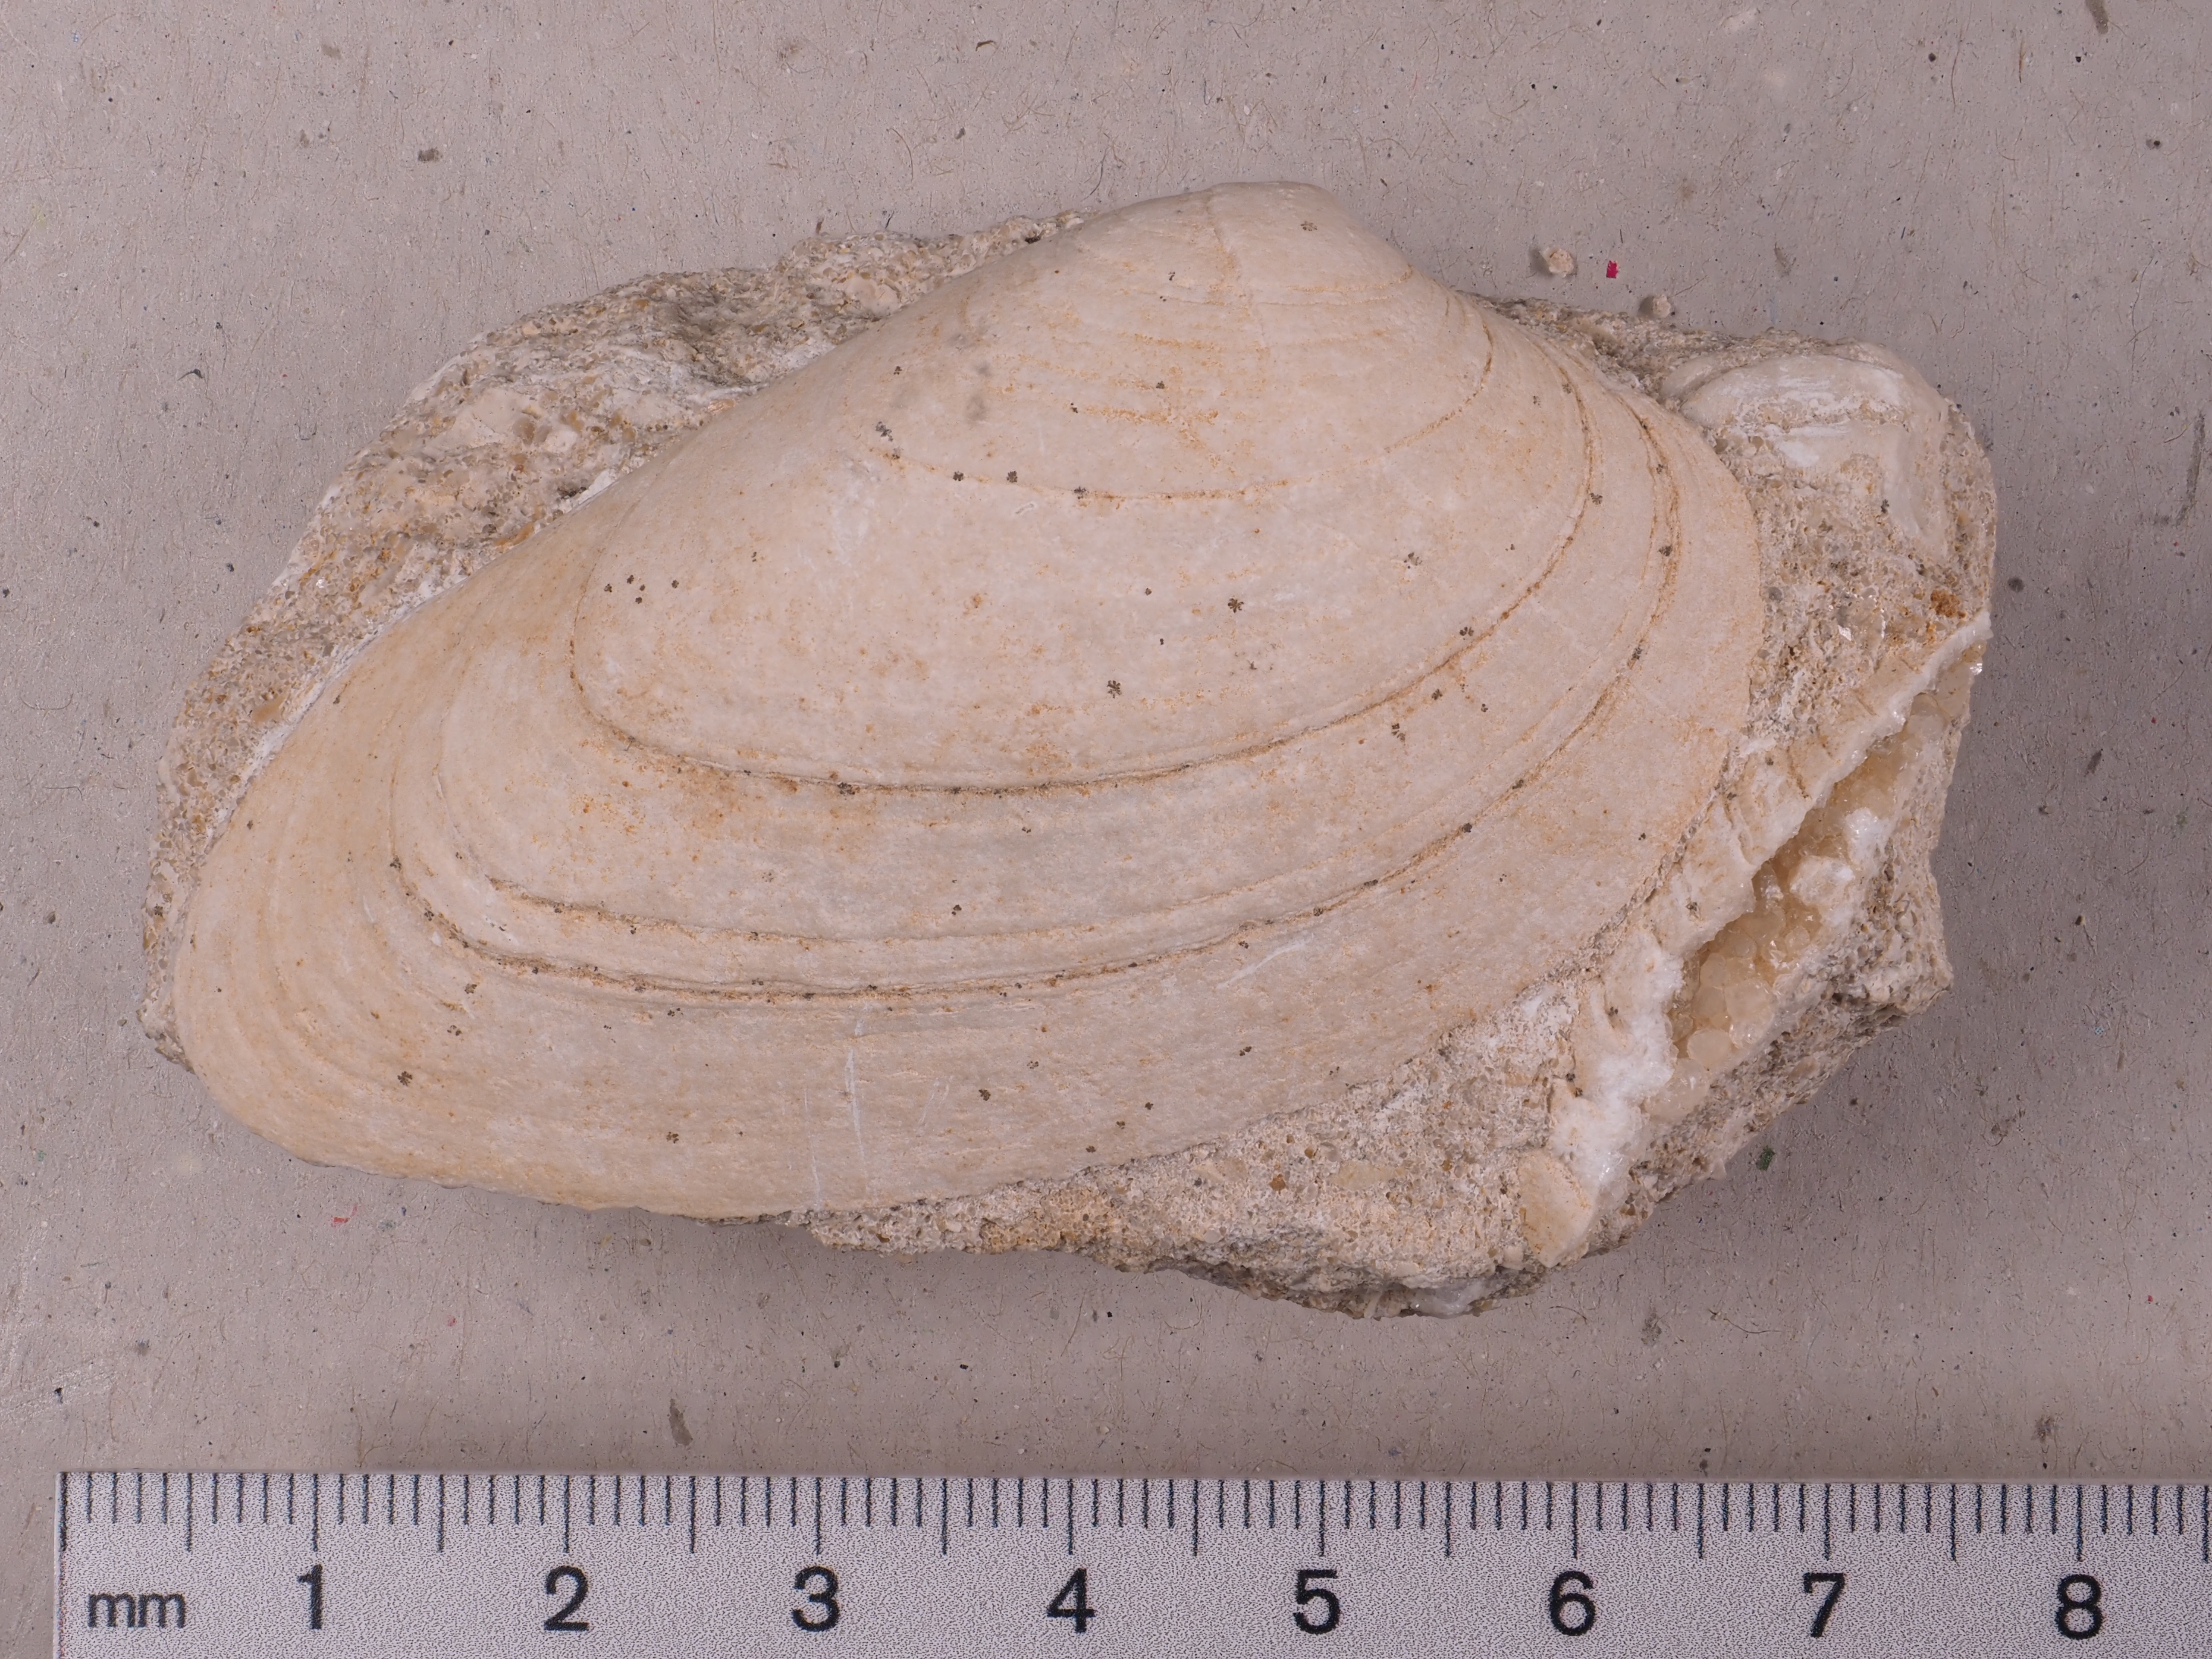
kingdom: Animalia
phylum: Mollusca
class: Bivalvia
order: Carditida
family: Cardiniidae
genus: Cardinia
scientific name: Cardinia
